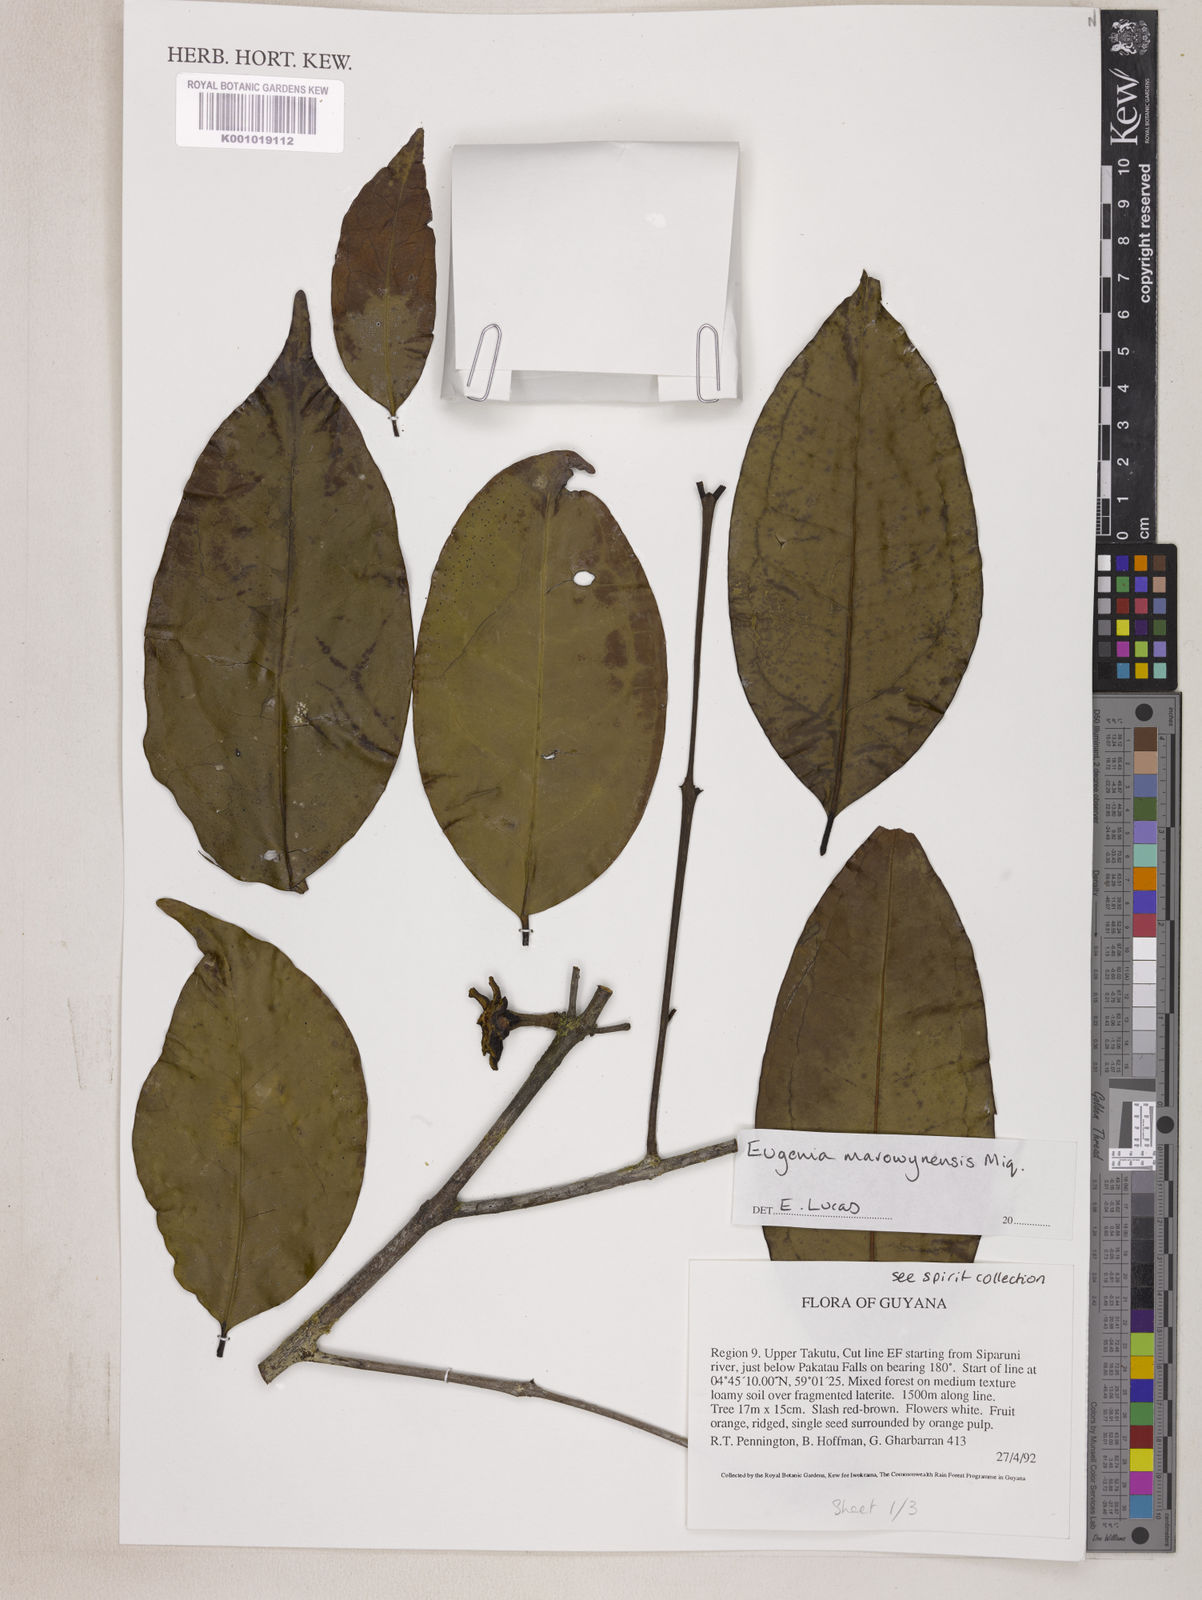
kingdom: Plantae
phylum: Tracheophyta
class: Magnoliopsida
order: Myrtales
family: Myrtaceae
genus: Eugenia
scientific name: Eugenia marowynensis
